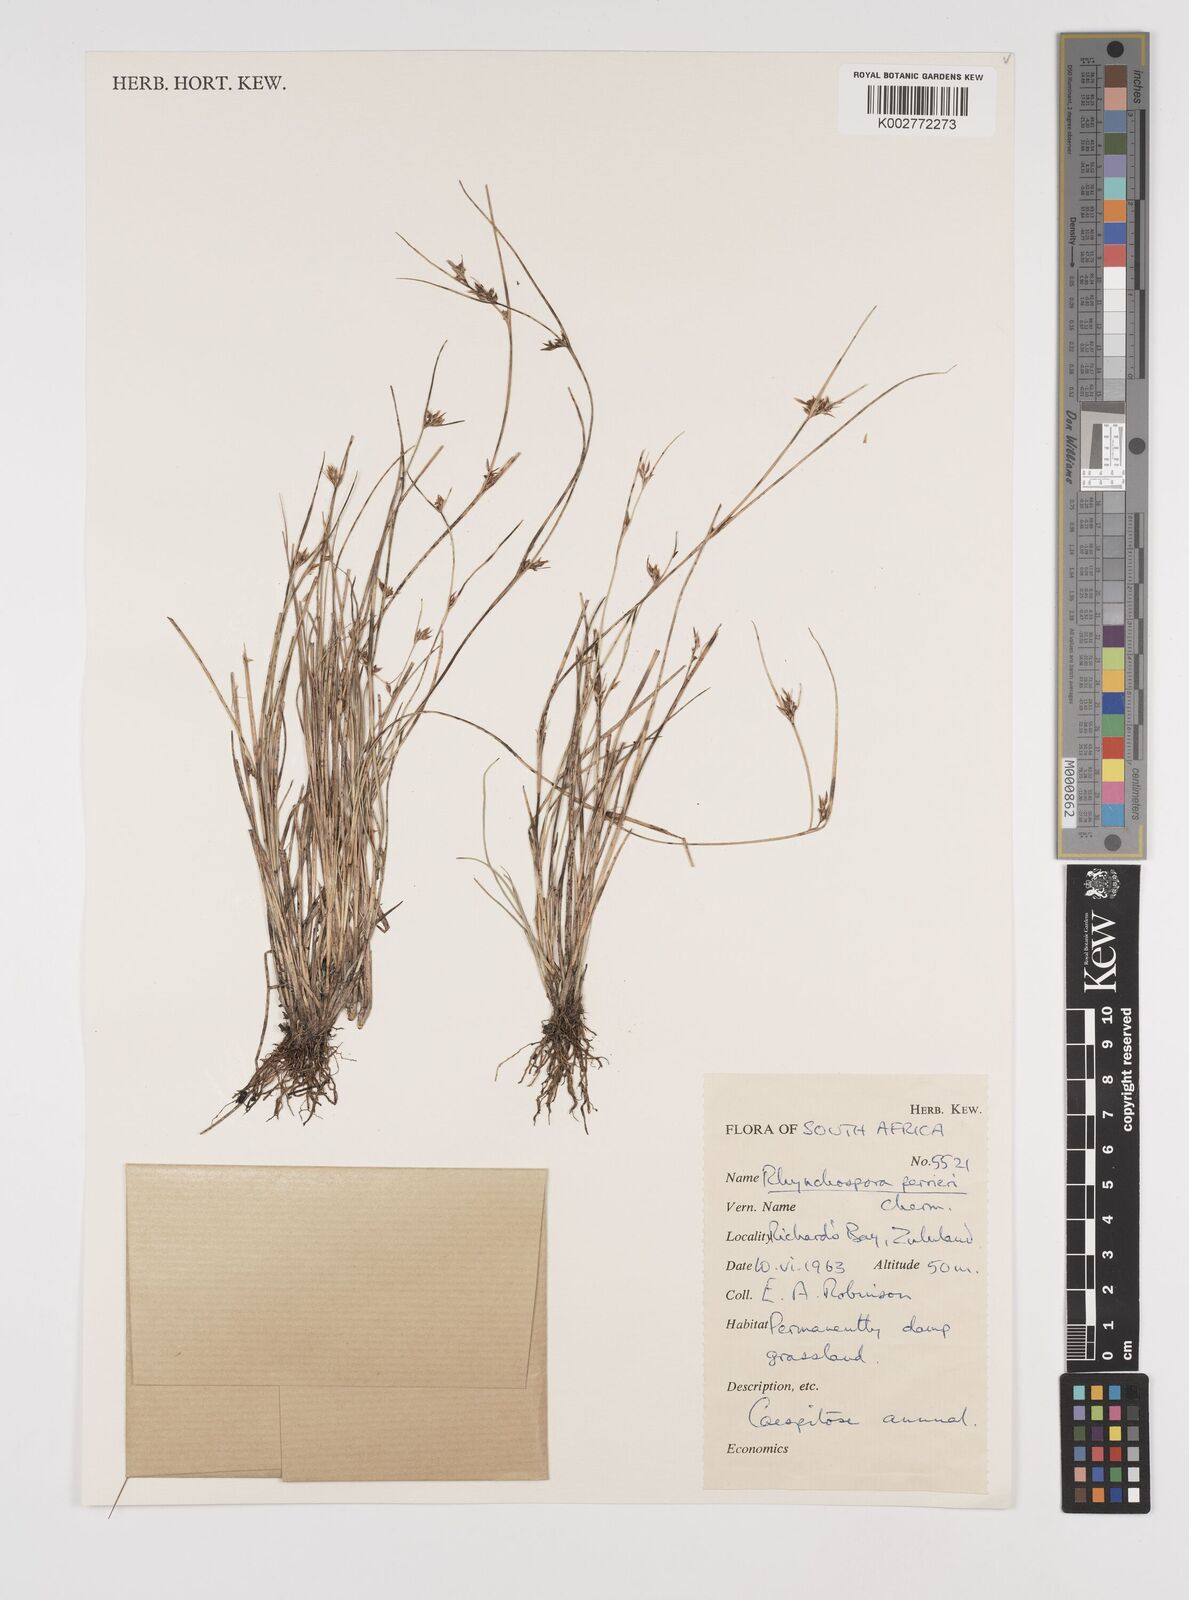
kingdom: Plantae
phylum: Tracheophyta
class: Liliopsida
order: Poales
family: Cyperaceae
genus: Rhynchospora
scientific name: Rhynchospora perrieri
